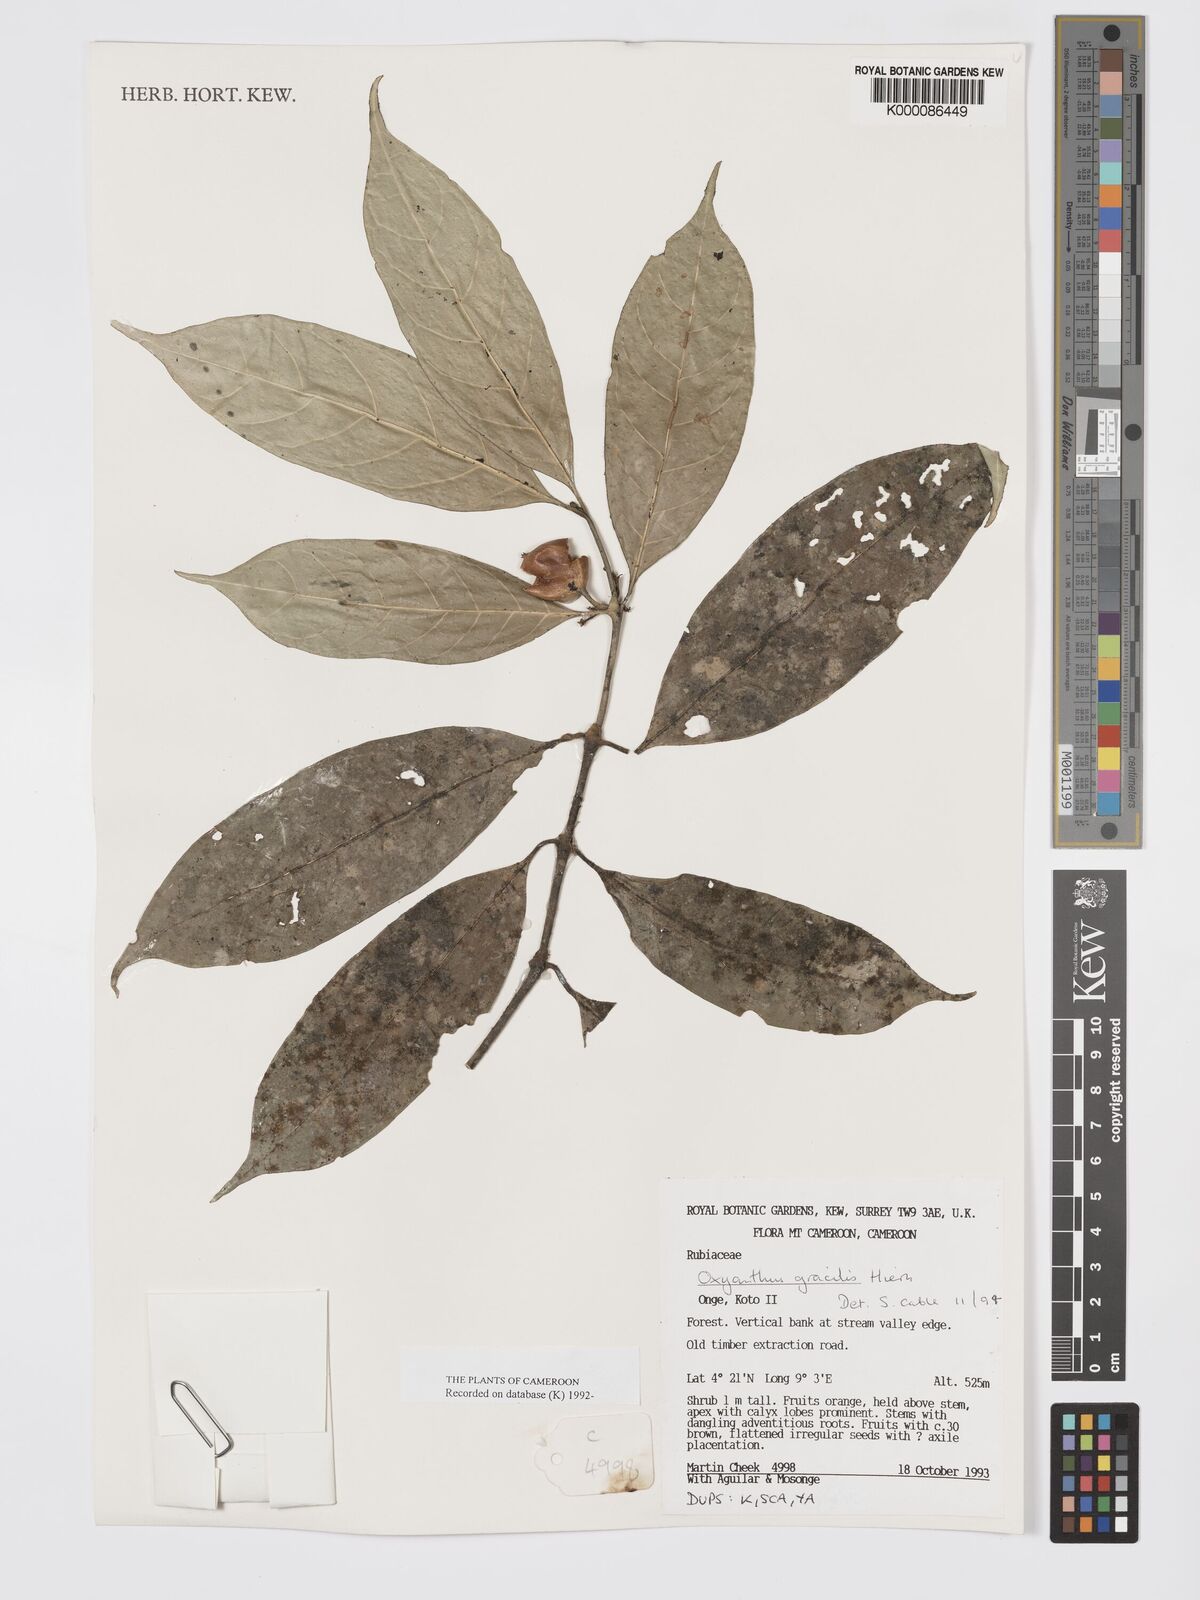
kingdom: Plantae
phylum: Tracheophyta
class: Magnoliopsida
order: Gentianales
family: Rubiaceae
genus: Oxyanthus
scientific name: Oxyanthus gracilis
